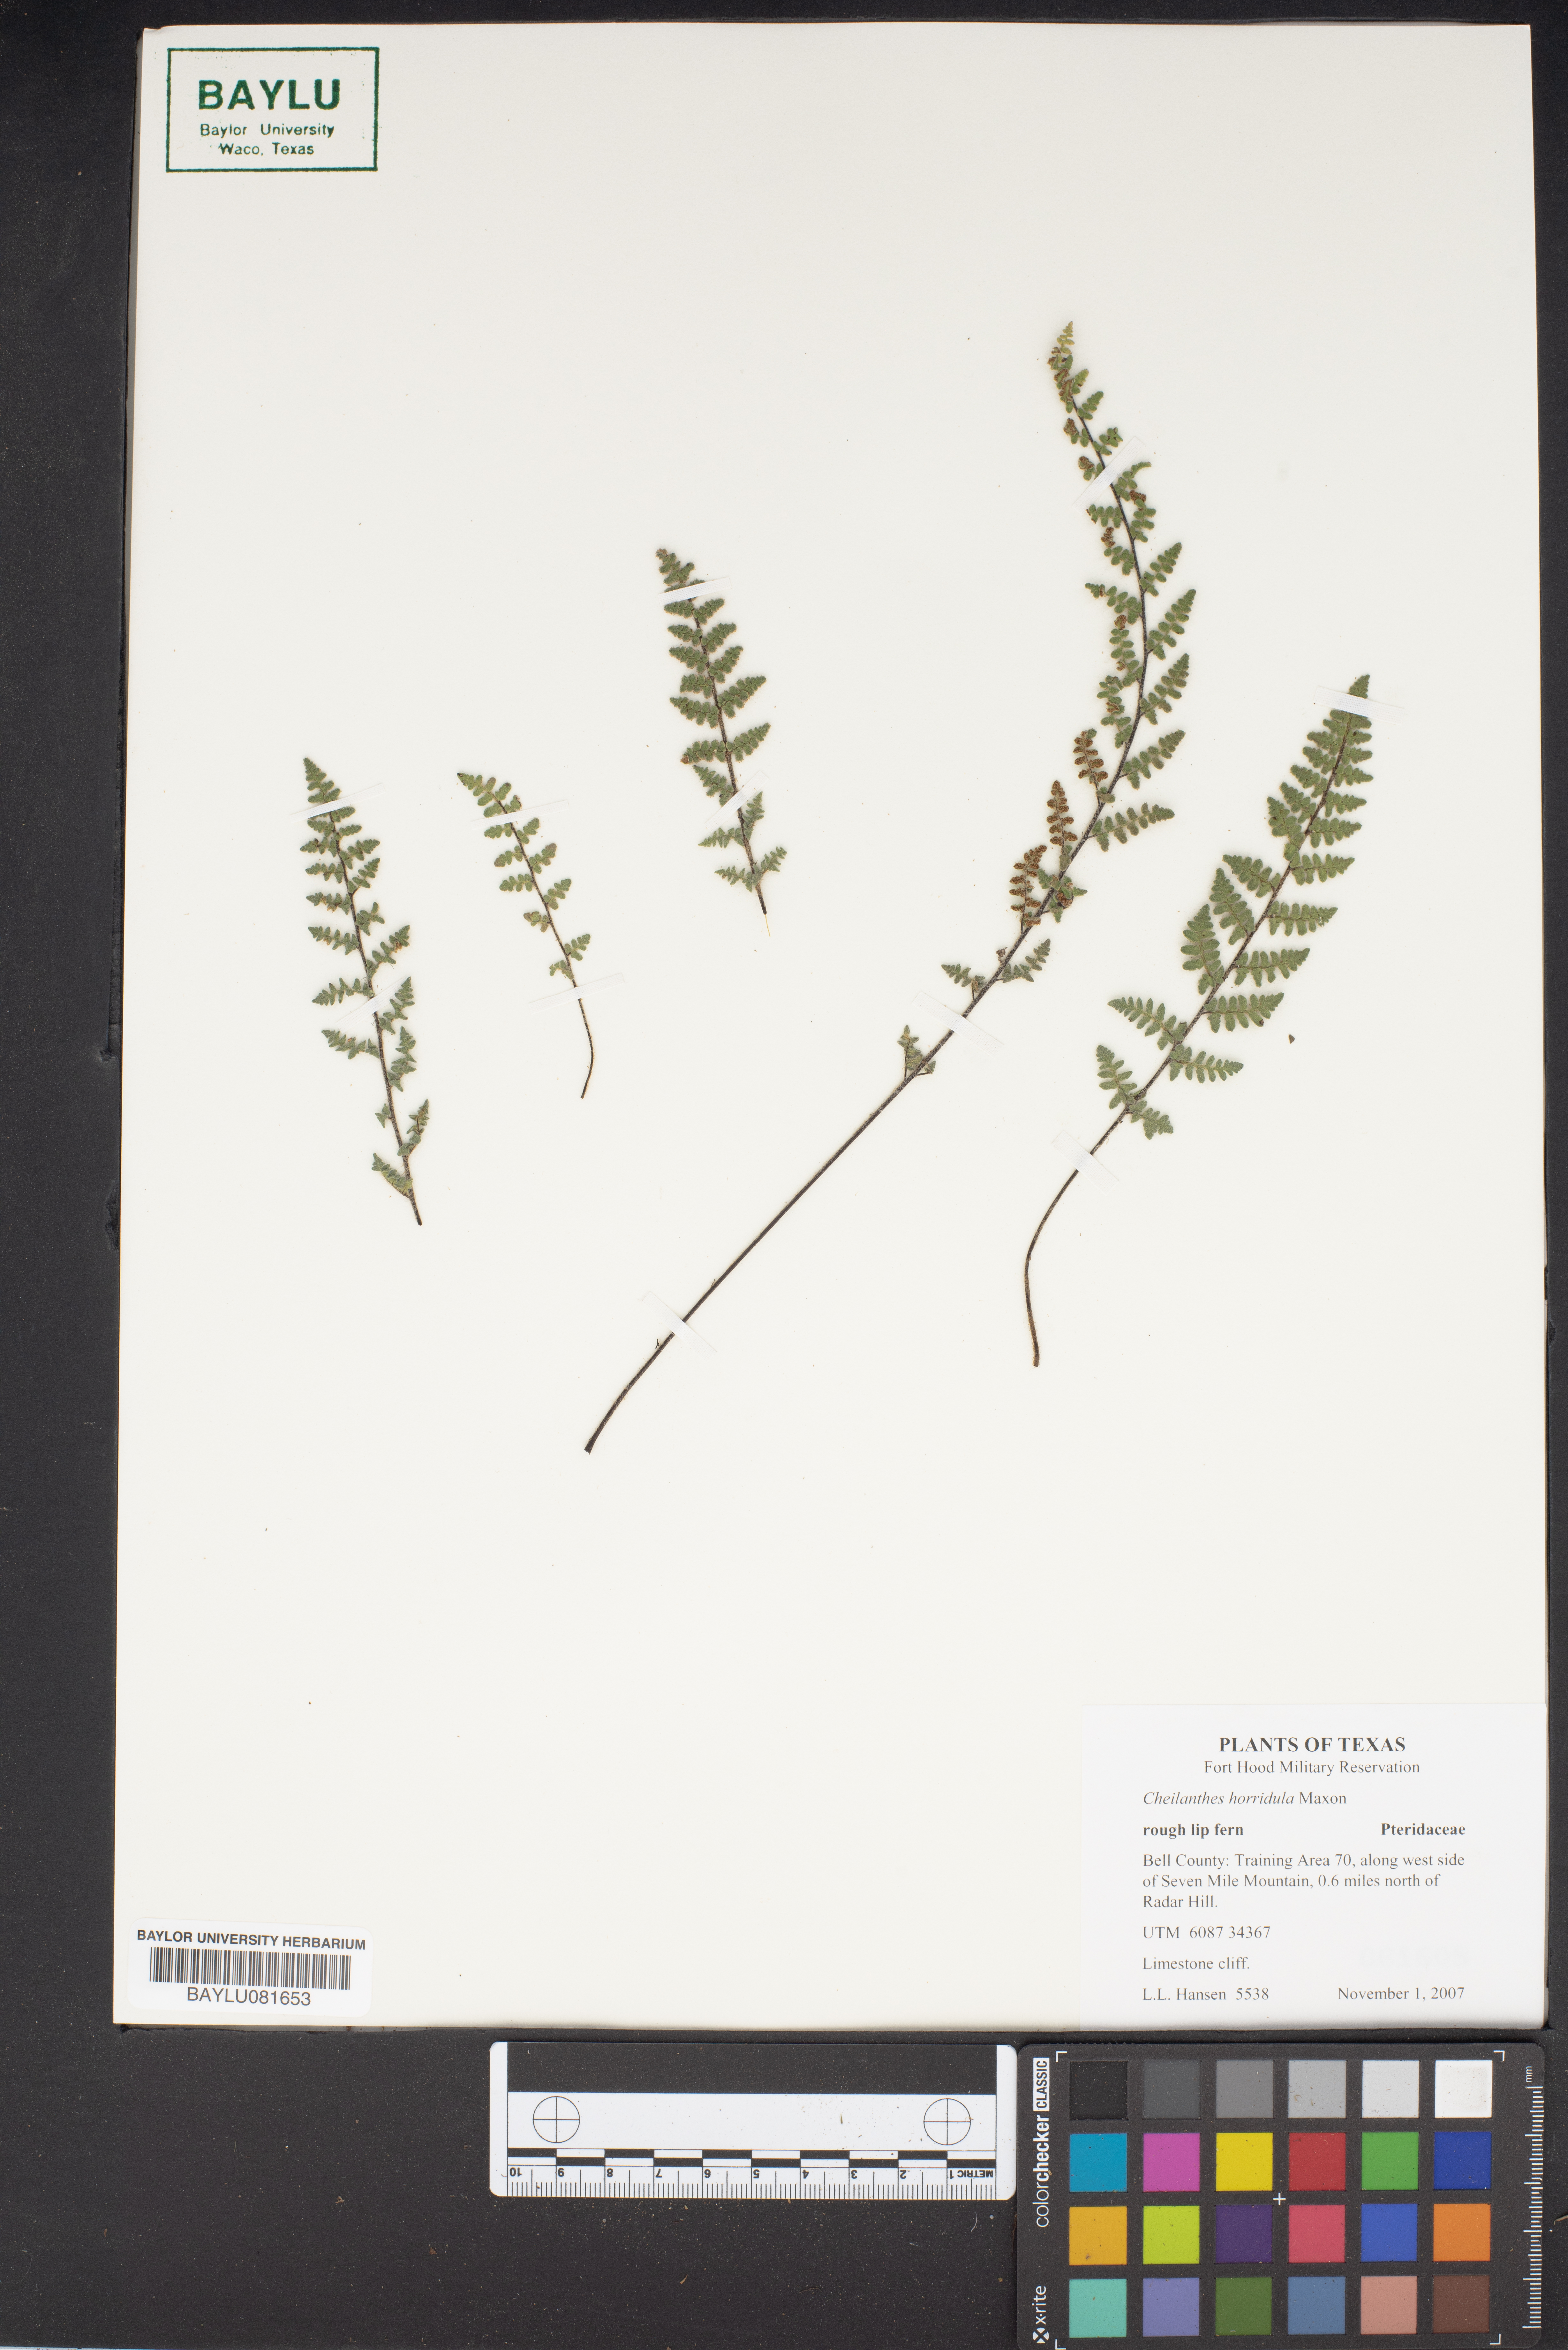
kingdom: Plantae
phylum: Tracheophyta
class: Polypodiopsida
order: Polypodiales
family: Pteridaceae
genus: Myriopteris
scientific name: Myriopteris scabra
